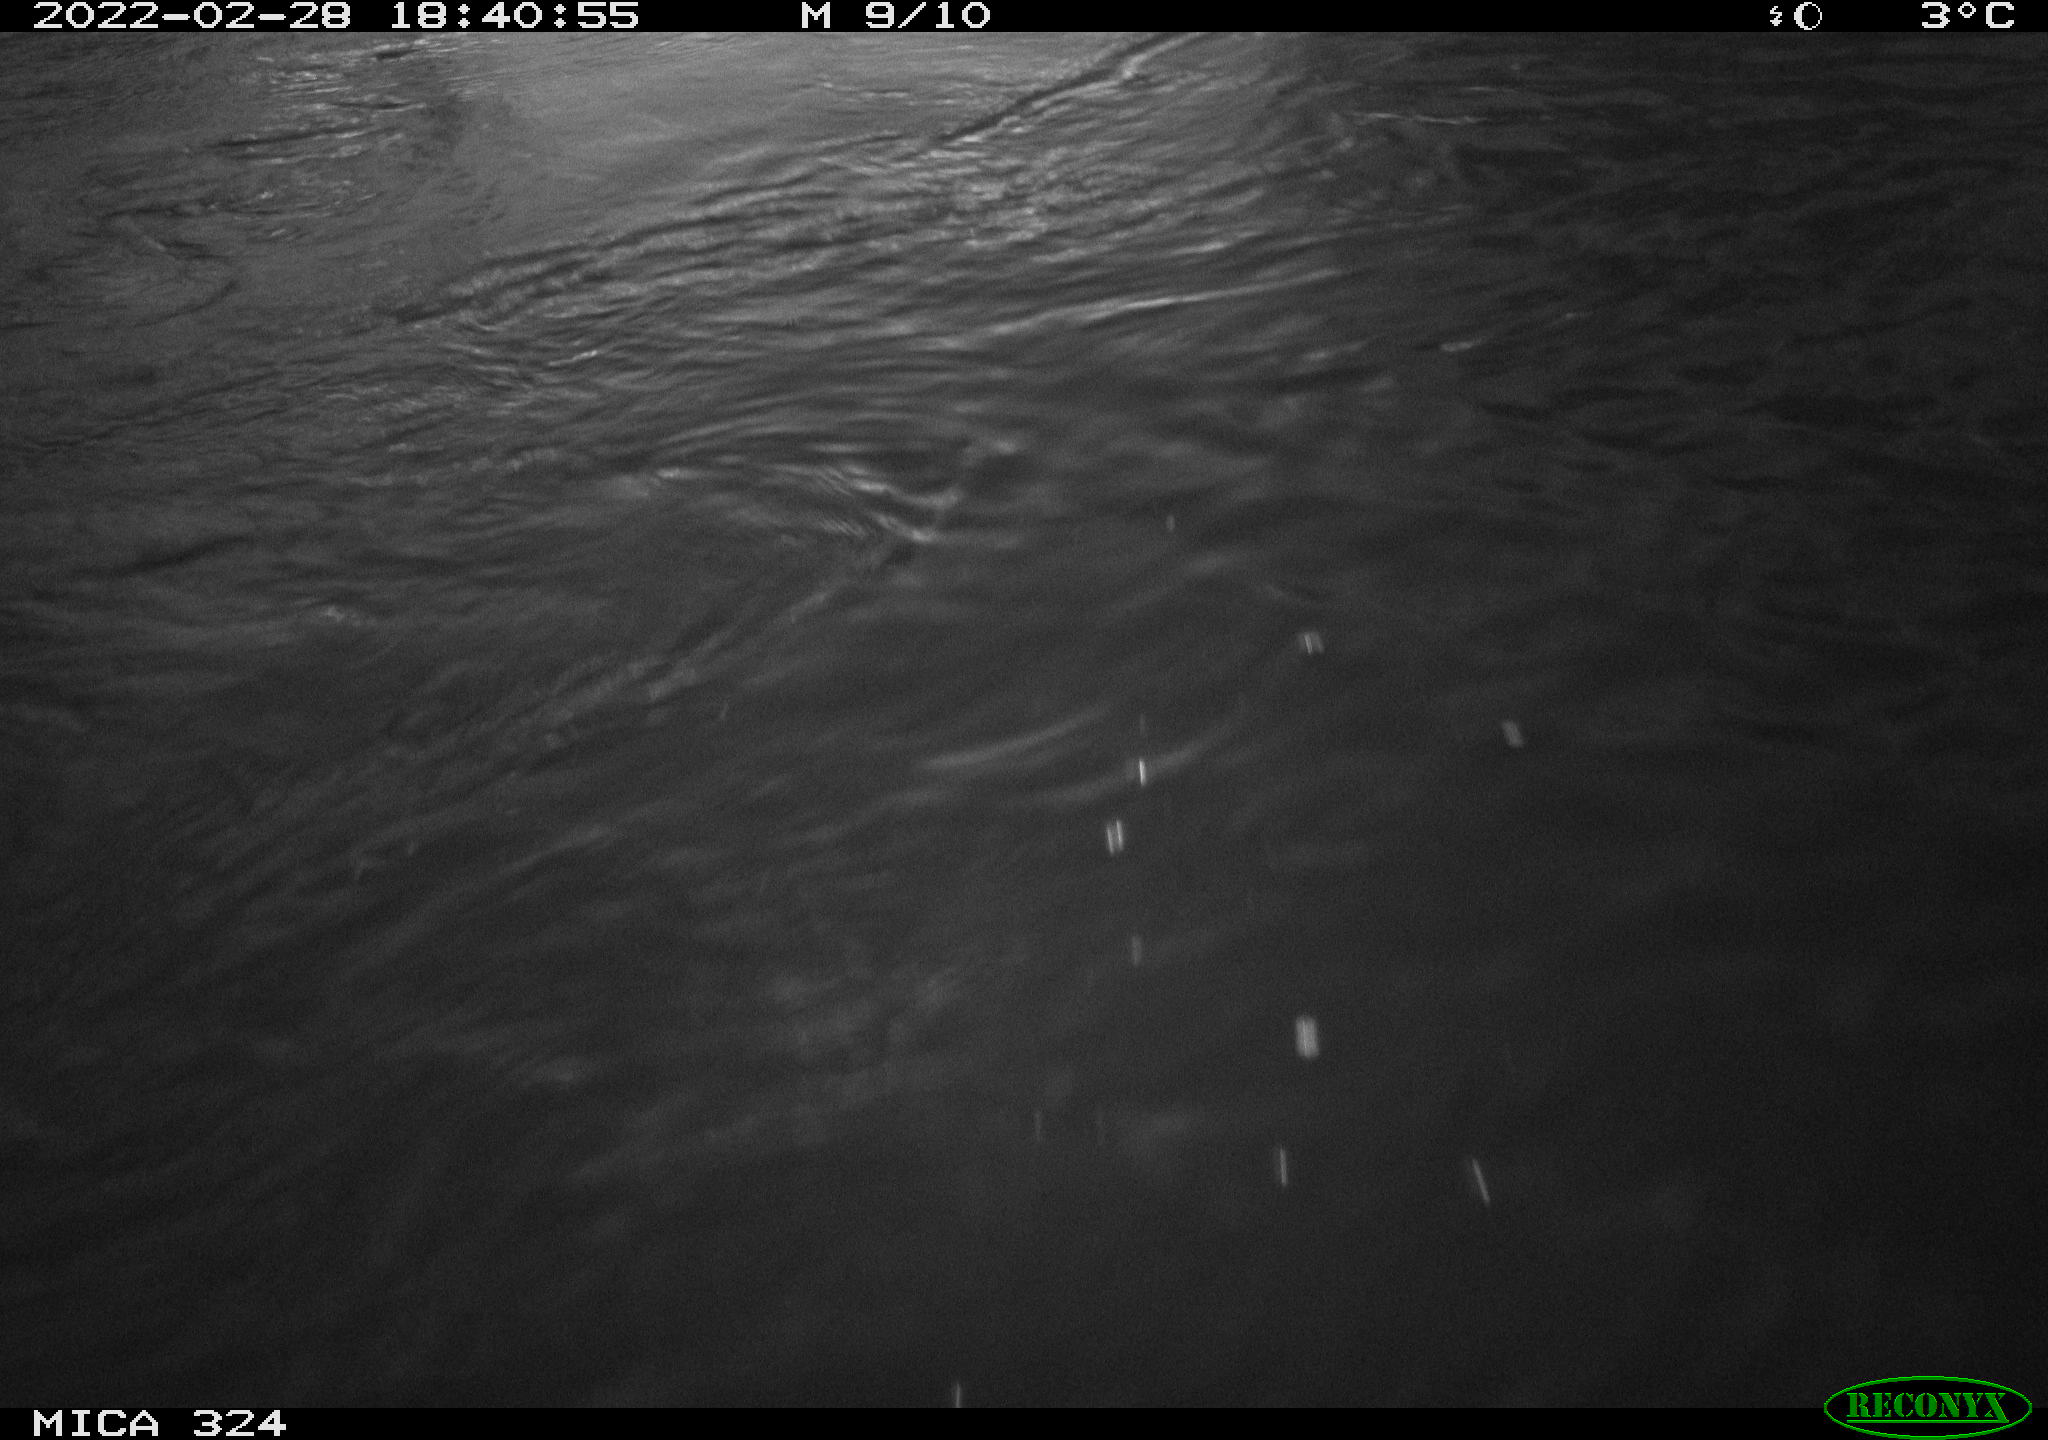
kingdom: Animalia
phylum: Chordata
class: Mammalia
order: Rodentia
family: Cricetidae
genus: Ondatra
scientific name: Ondatra zibethicus
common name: Muskrat
